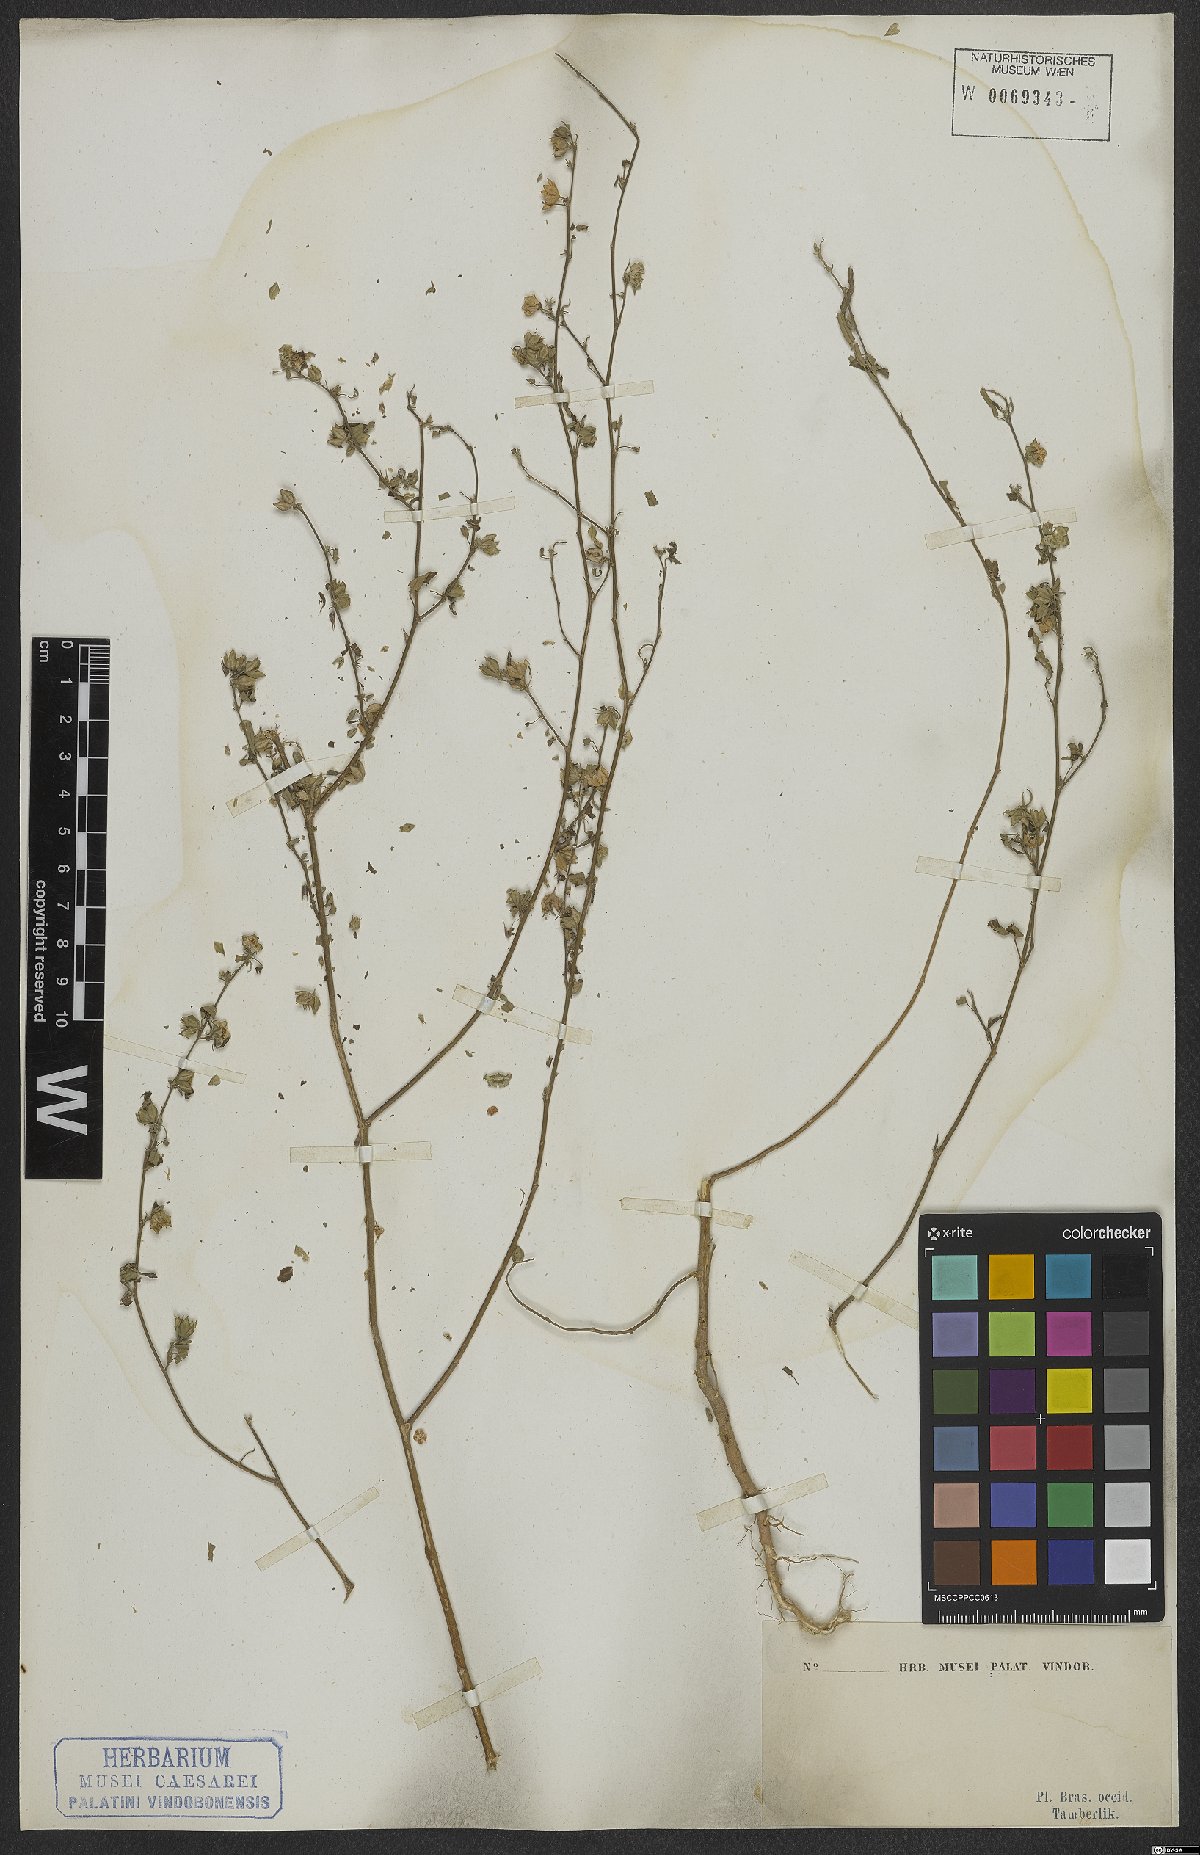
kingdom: Plantae
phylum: Tracheophyta
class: Magnoliopsida
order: Malvales
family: Malvaceae
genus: Sida
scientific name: Sida spinosa
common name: Prickly fanpetals
